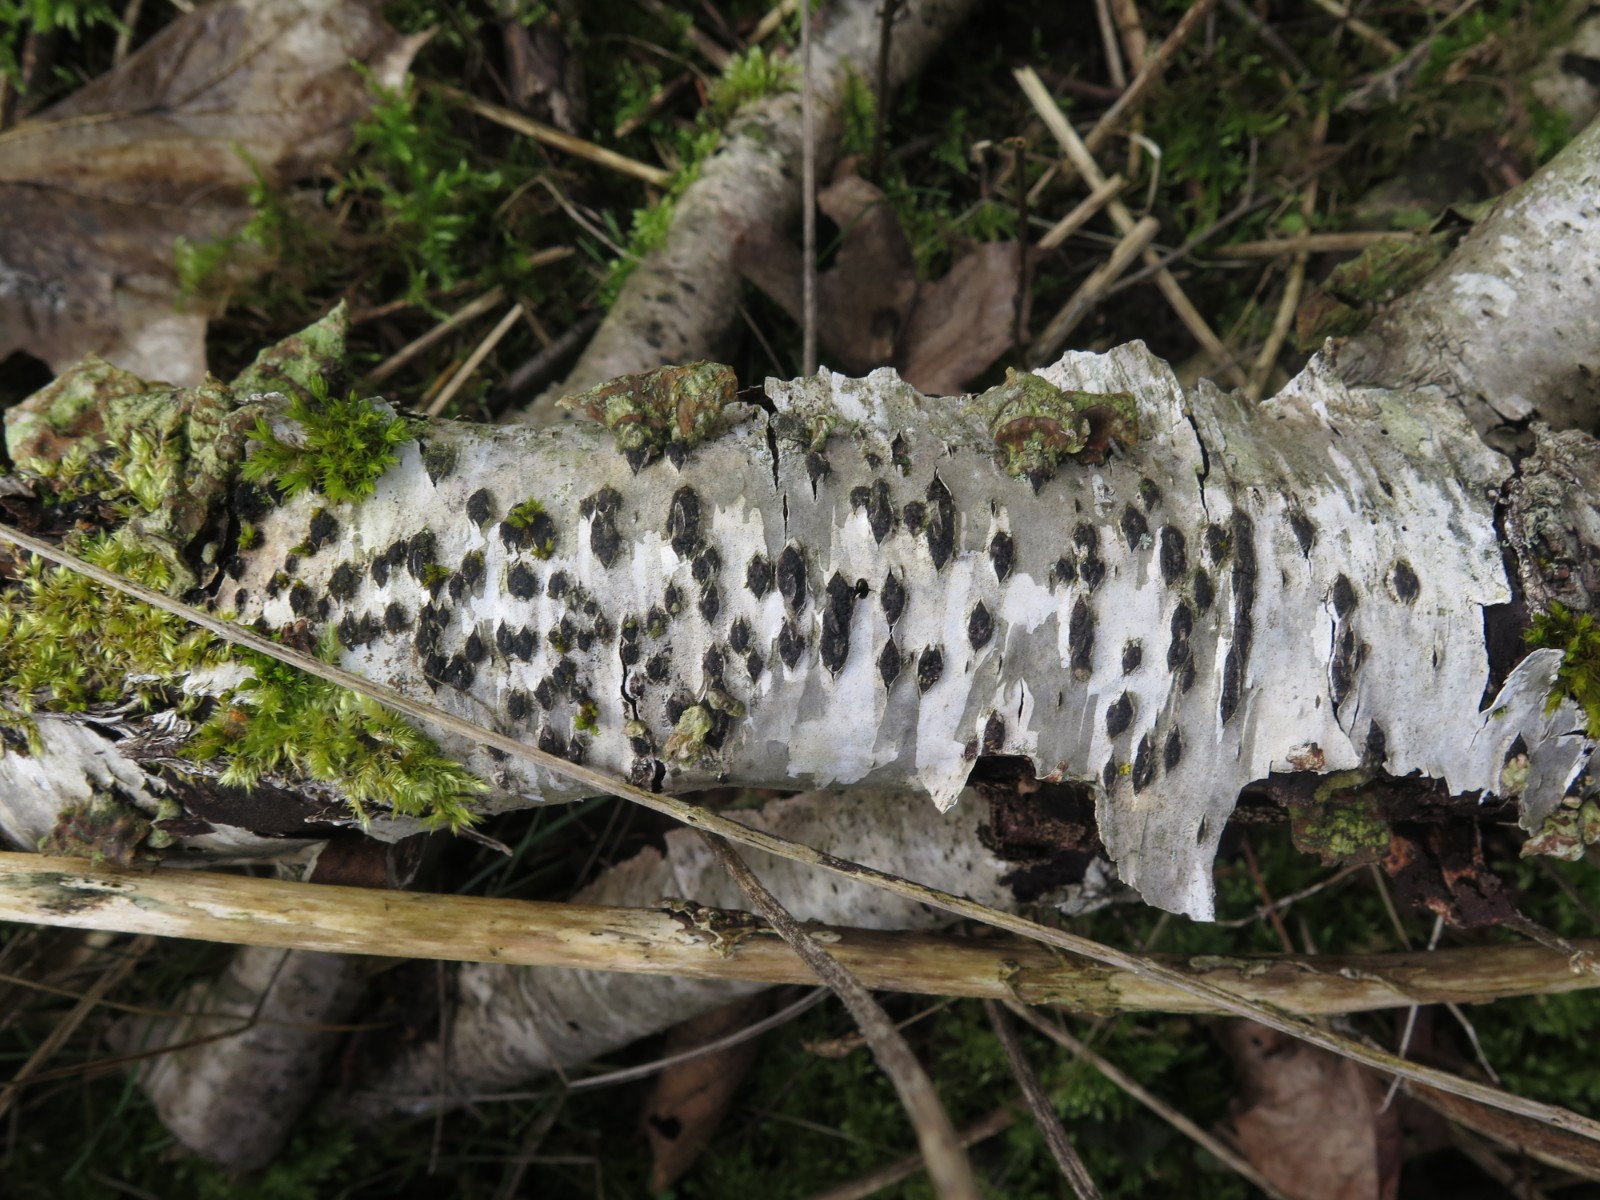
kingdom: Fungi
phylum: Ascomycota
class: Sordariomycetes
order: Xylariales
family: Diatrypaceae
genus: Diatrypella
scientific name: Diatrypella favacea
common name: Birch blackhead
